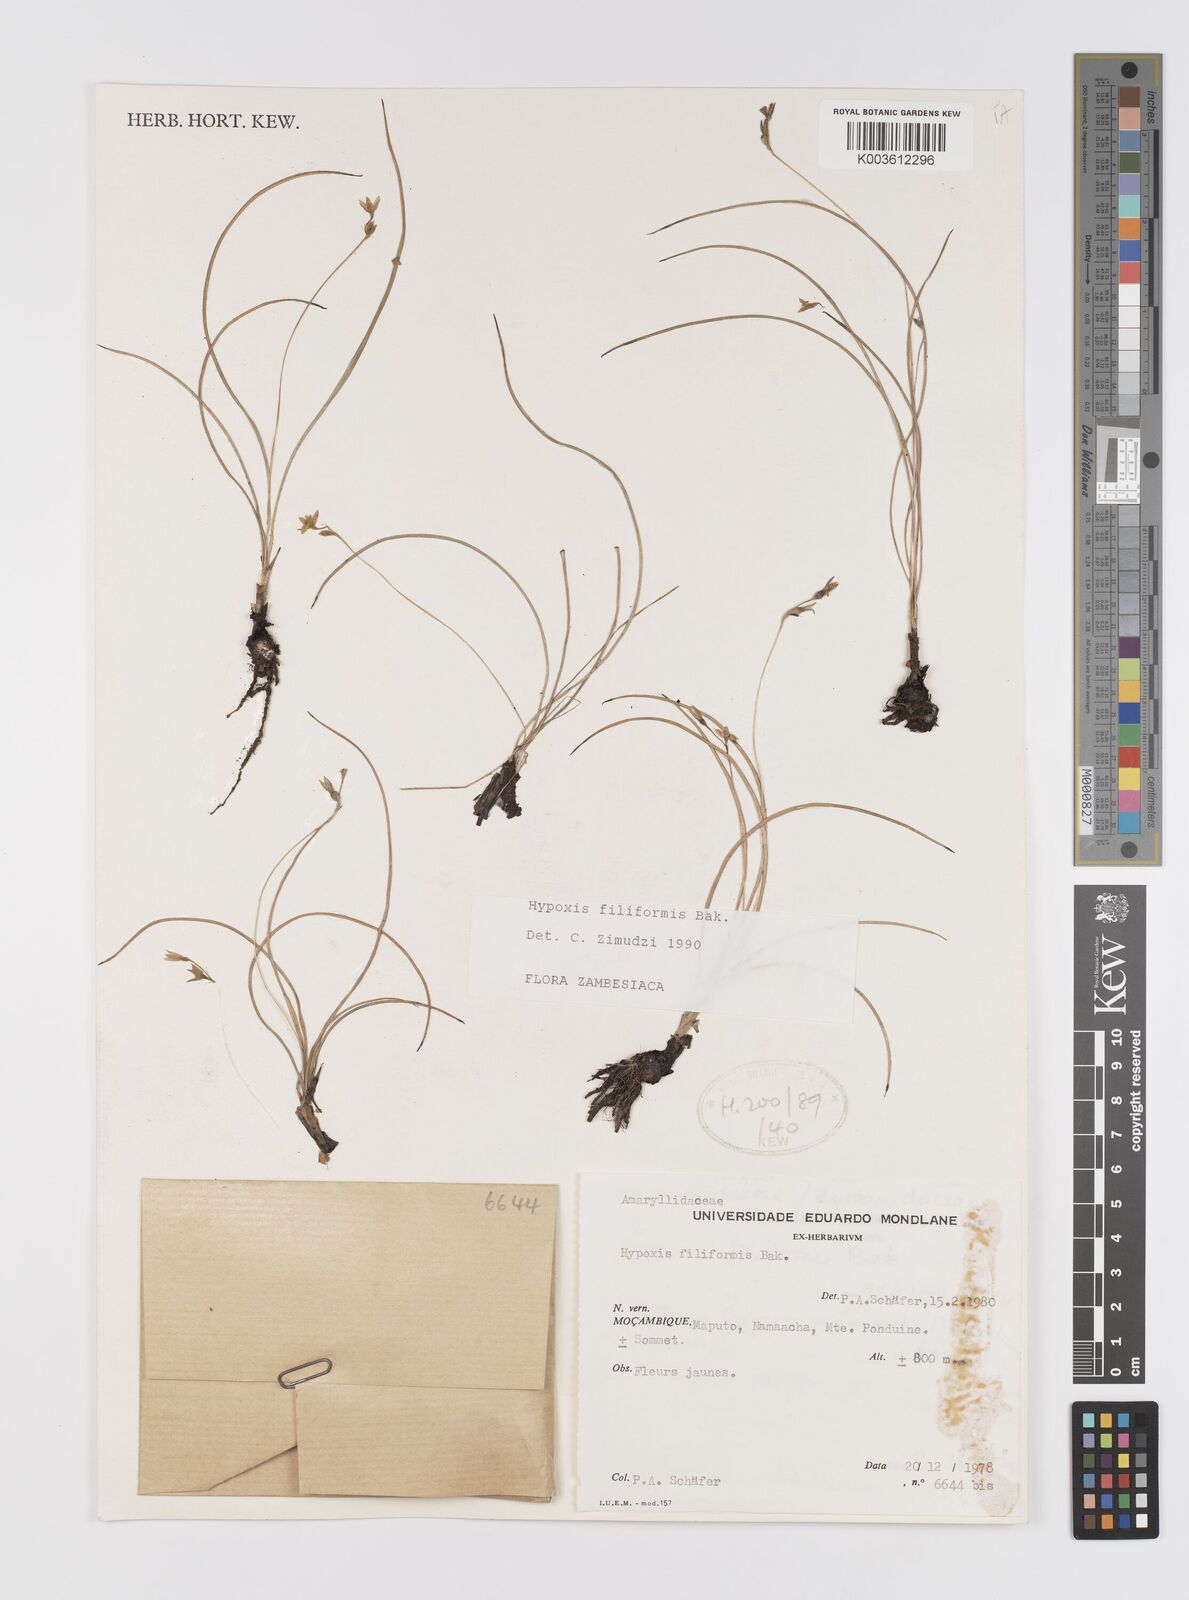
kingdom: Plantae
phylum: Tracheophyta
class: Liliopsida
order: Asparagales
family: Hypoxidaceae
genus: Hypoxis
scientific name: Hypoxis filiformis
